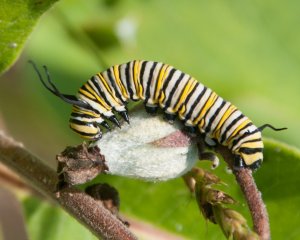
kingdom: Animalia
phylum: Arthropoda
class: Insecta
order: Lepidoptera
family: Nymphalidae
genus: Danaus
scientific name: Danaus plexippus
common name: Monarch
